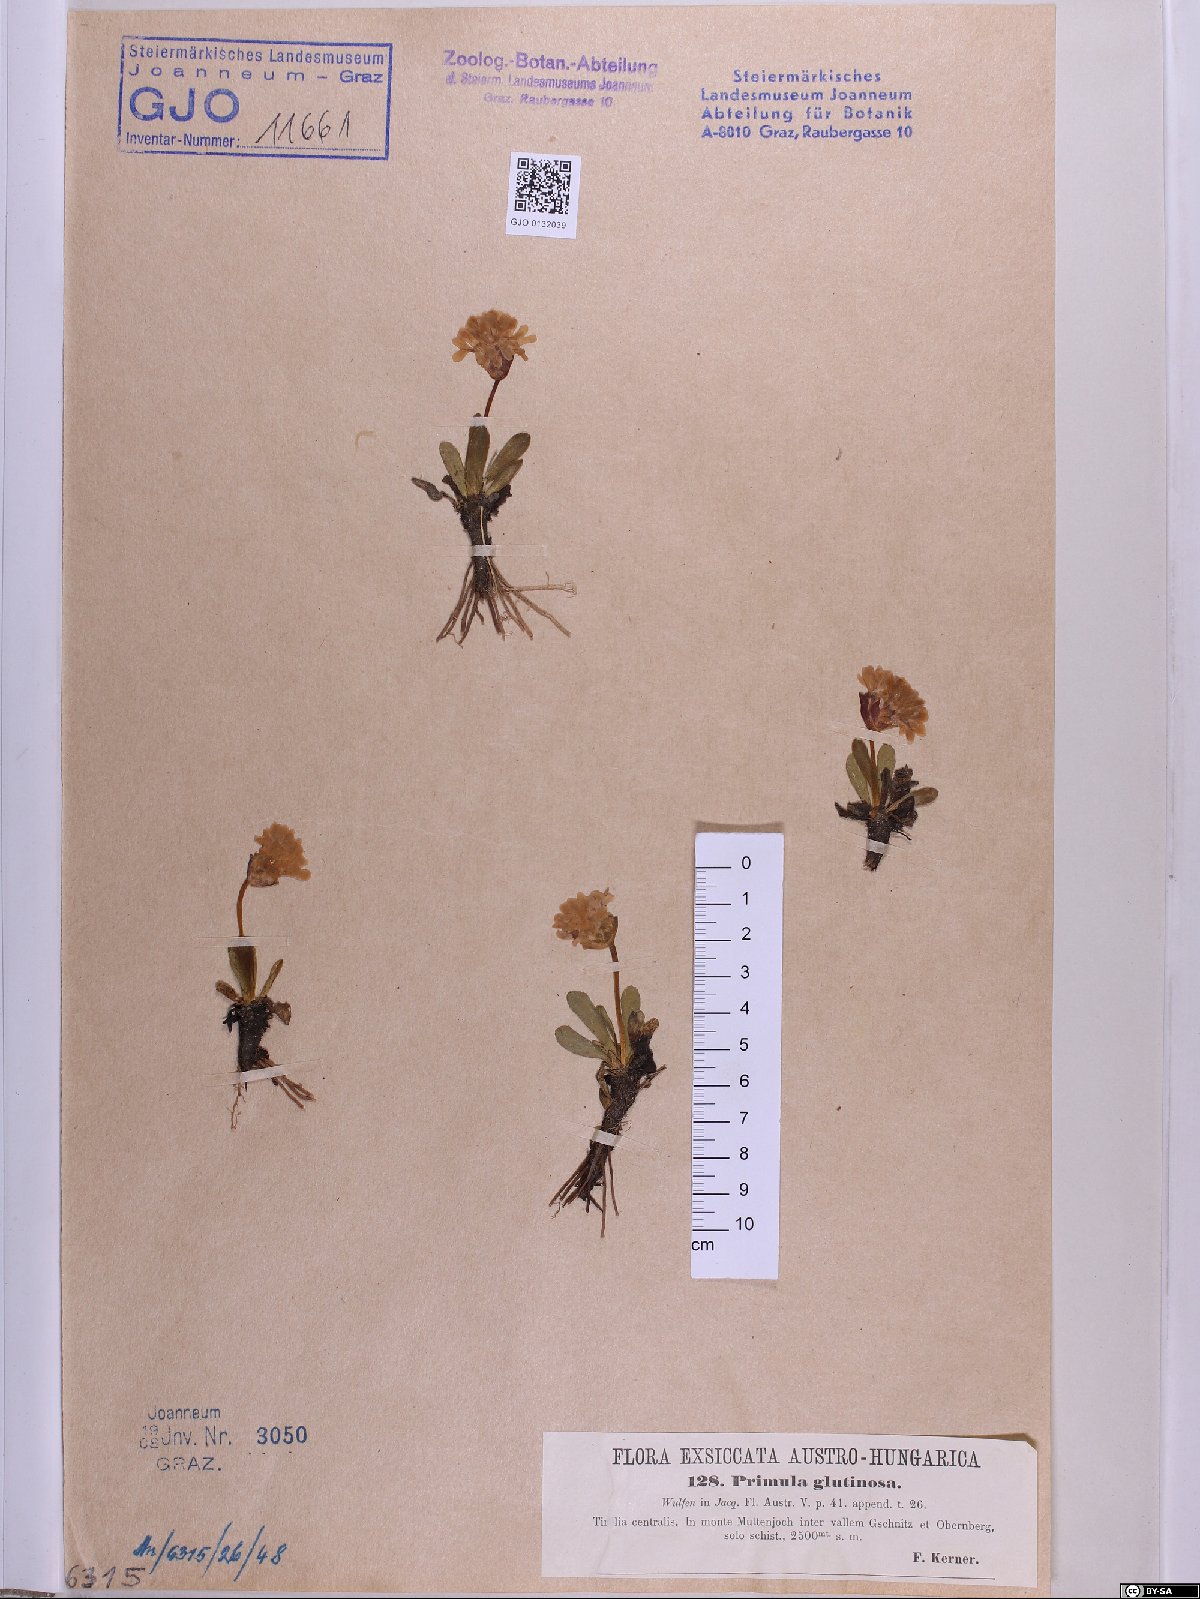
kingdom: Plantae
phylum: Tracheophyta
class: Magnoliopsida
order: Ericales
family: Primulaceae
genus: Primula
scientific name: Primula glutinosa
